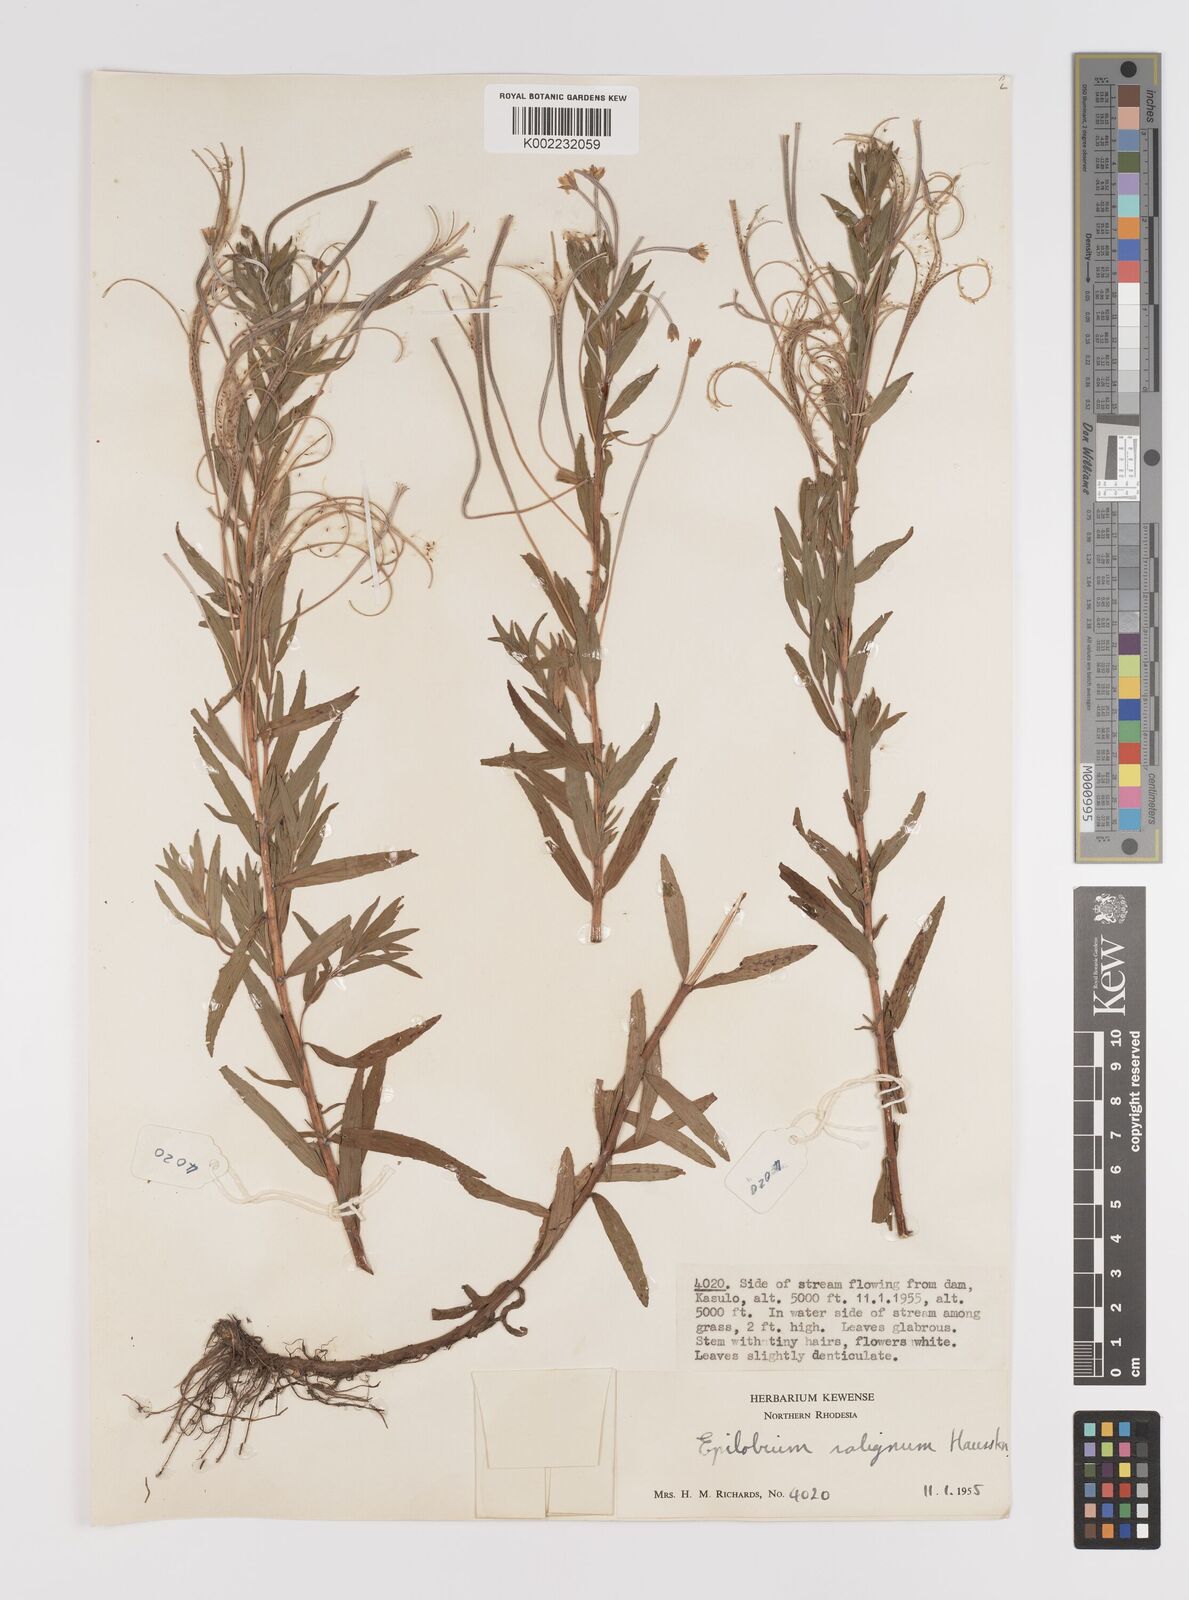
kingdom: Plantae
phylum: Tracheophyta
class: Magnoliopsida
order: Myrtales
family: Onagraceae
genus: Epilobium
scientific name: Epilobium salignum
